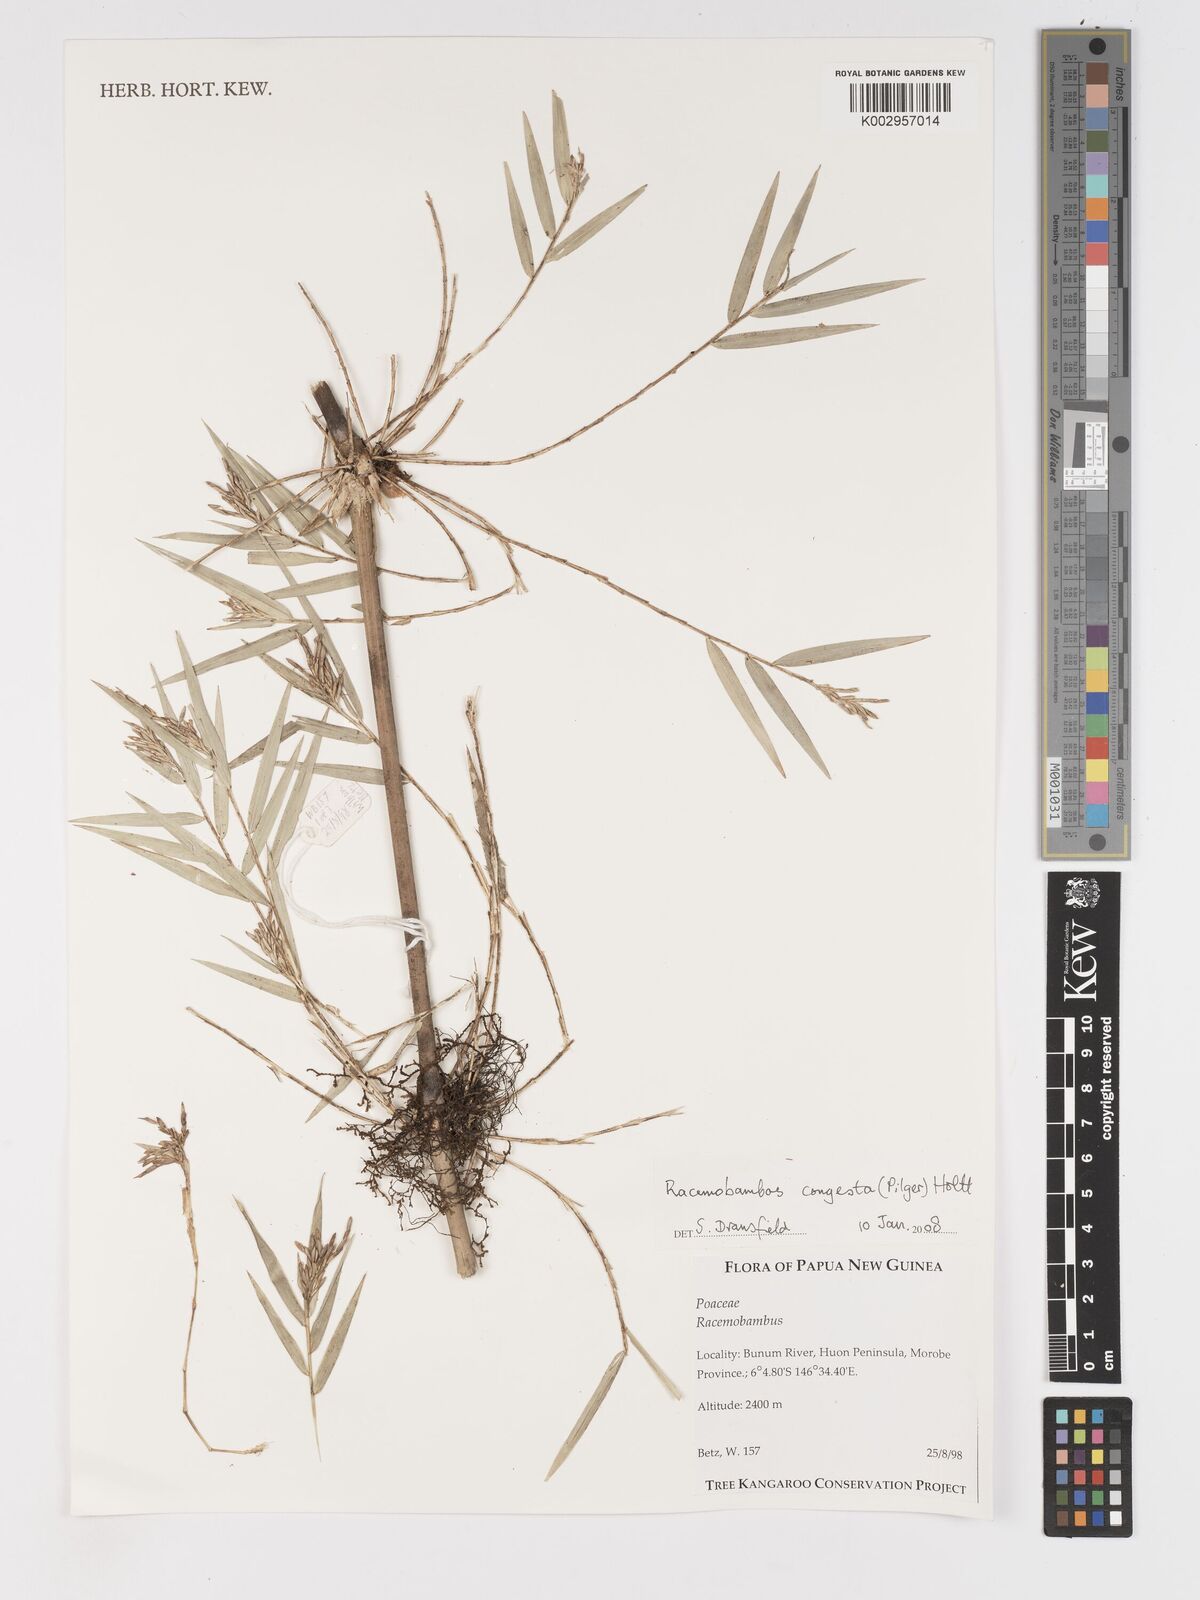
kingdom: Plantae
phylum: Tracheophyta
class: Liliopsida
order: Poales
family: Poaceae
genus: Racemobambos
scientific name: Racemobambos congesta
